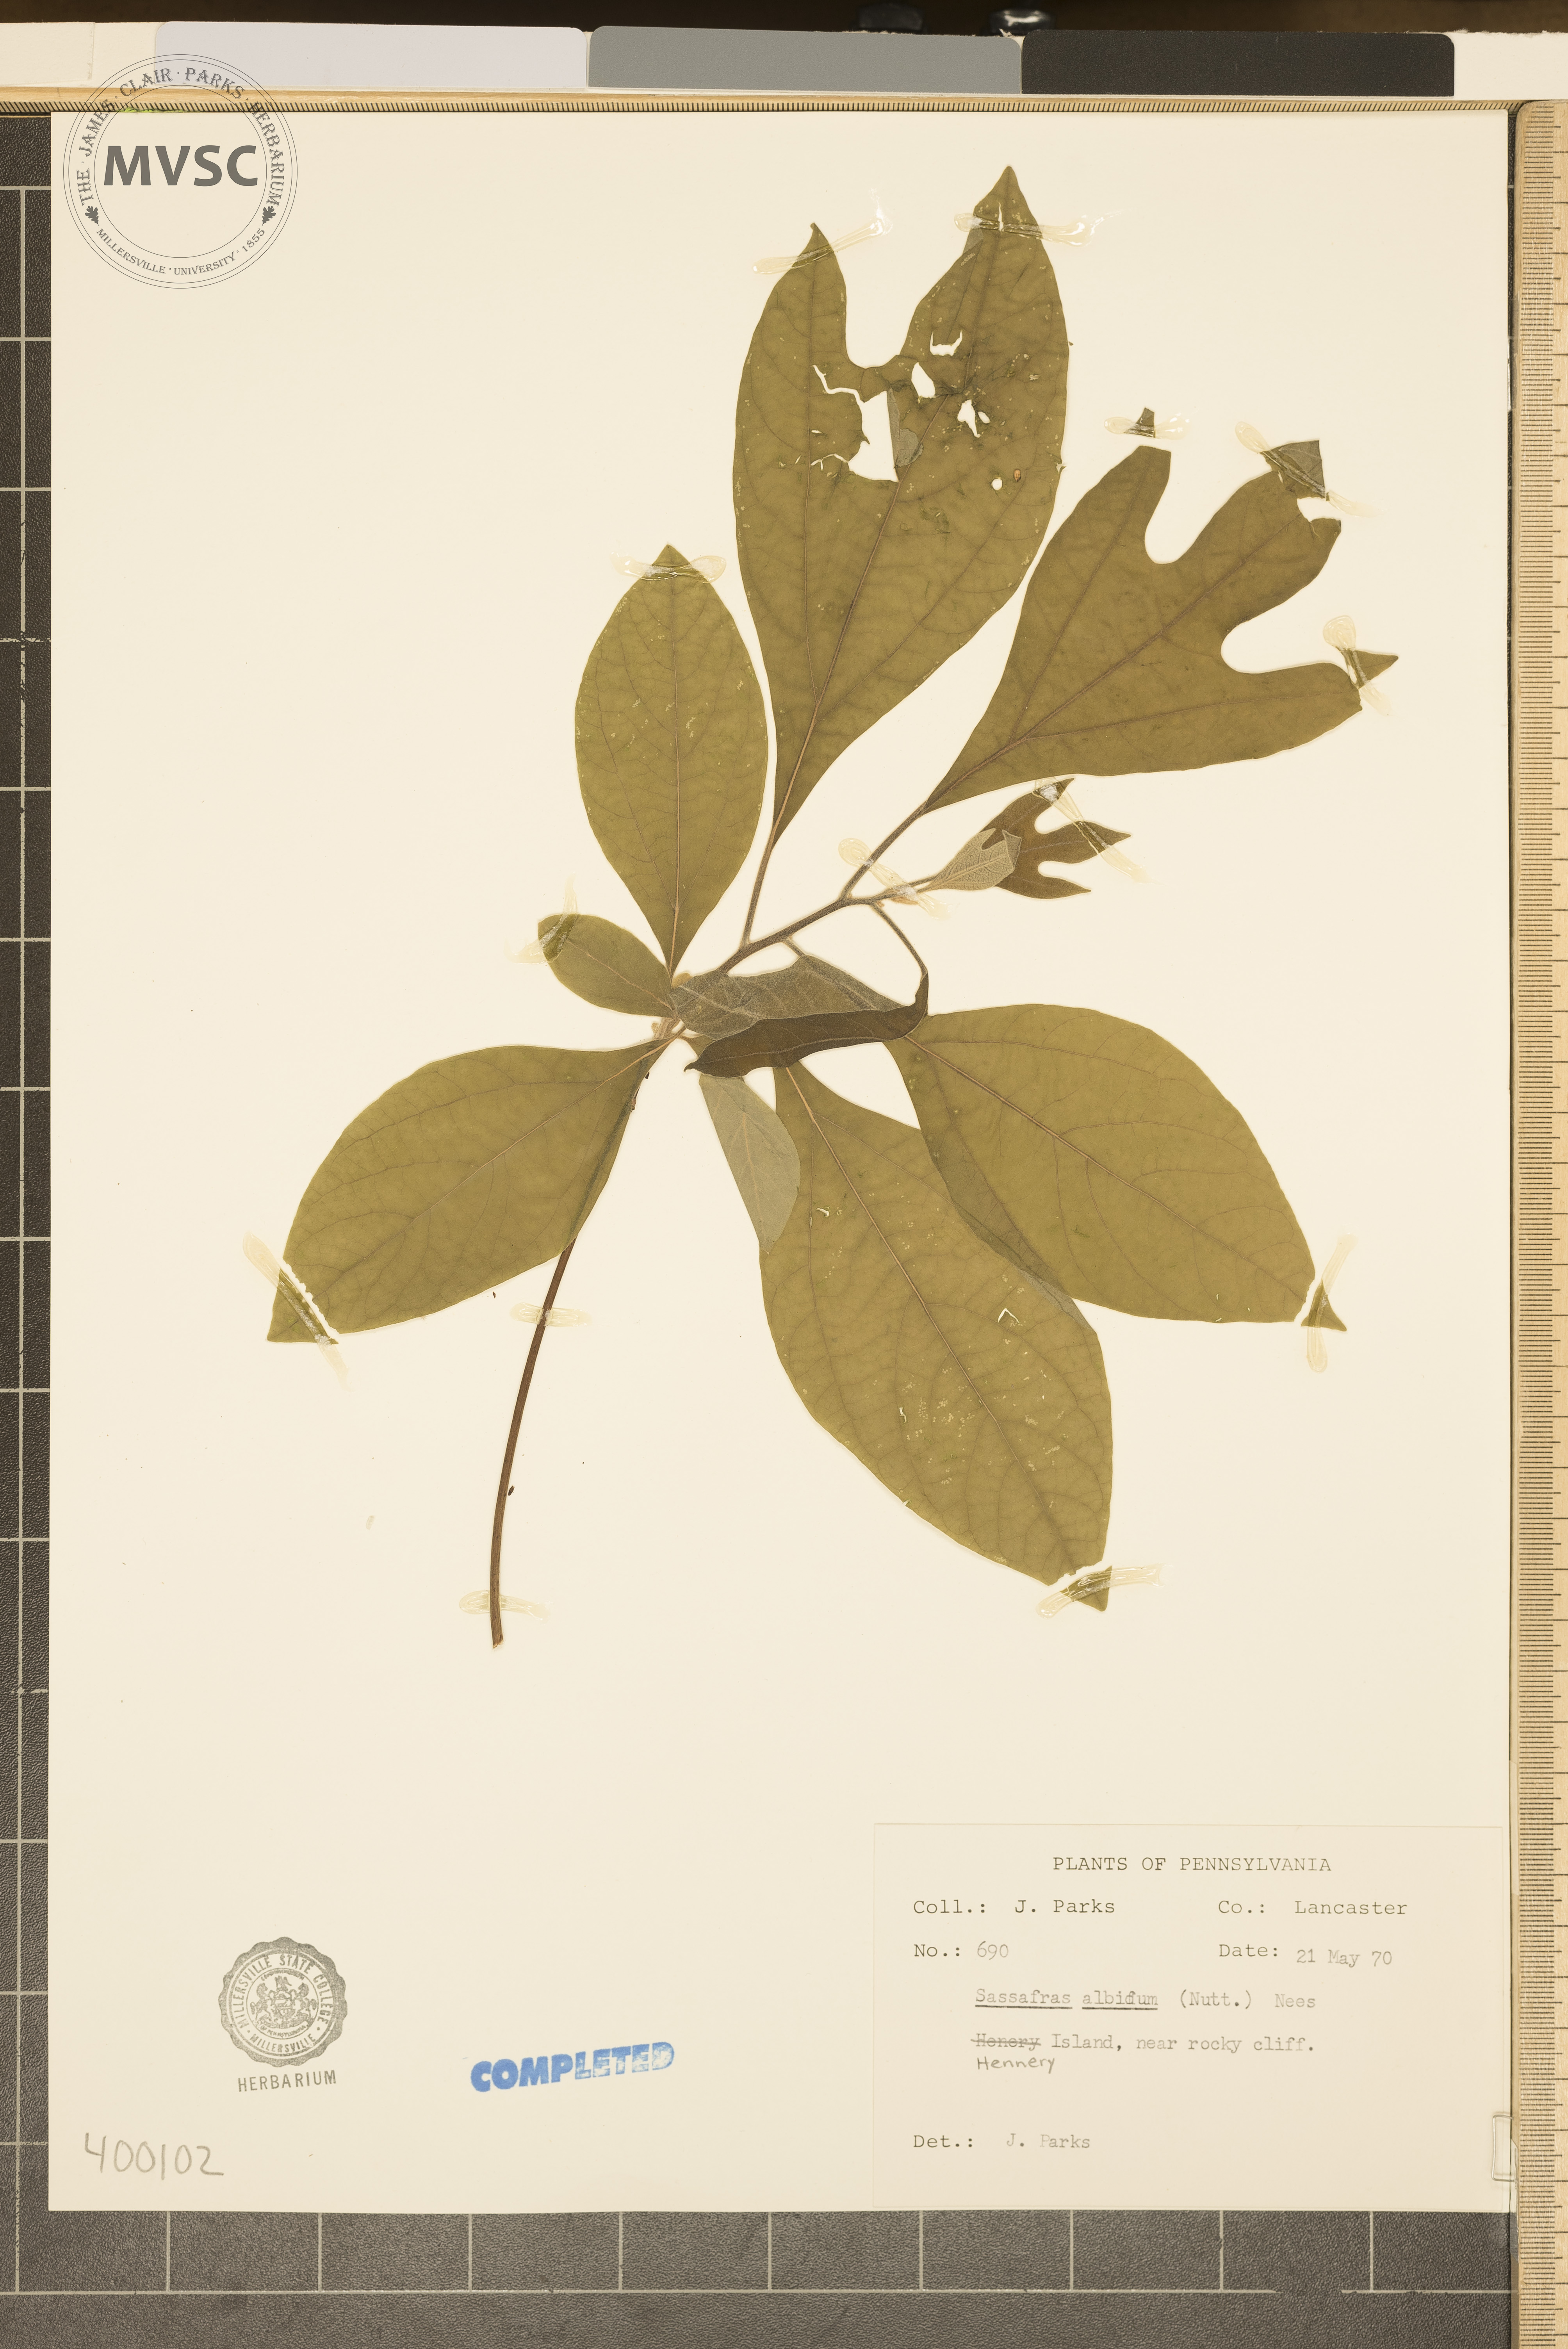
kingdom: Plantae
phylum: Tracheophyta
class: Magnoliopsida
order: Laurales
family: Lauraceae
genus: Sassafras
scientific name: Sassafras albidum
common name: sassafras
